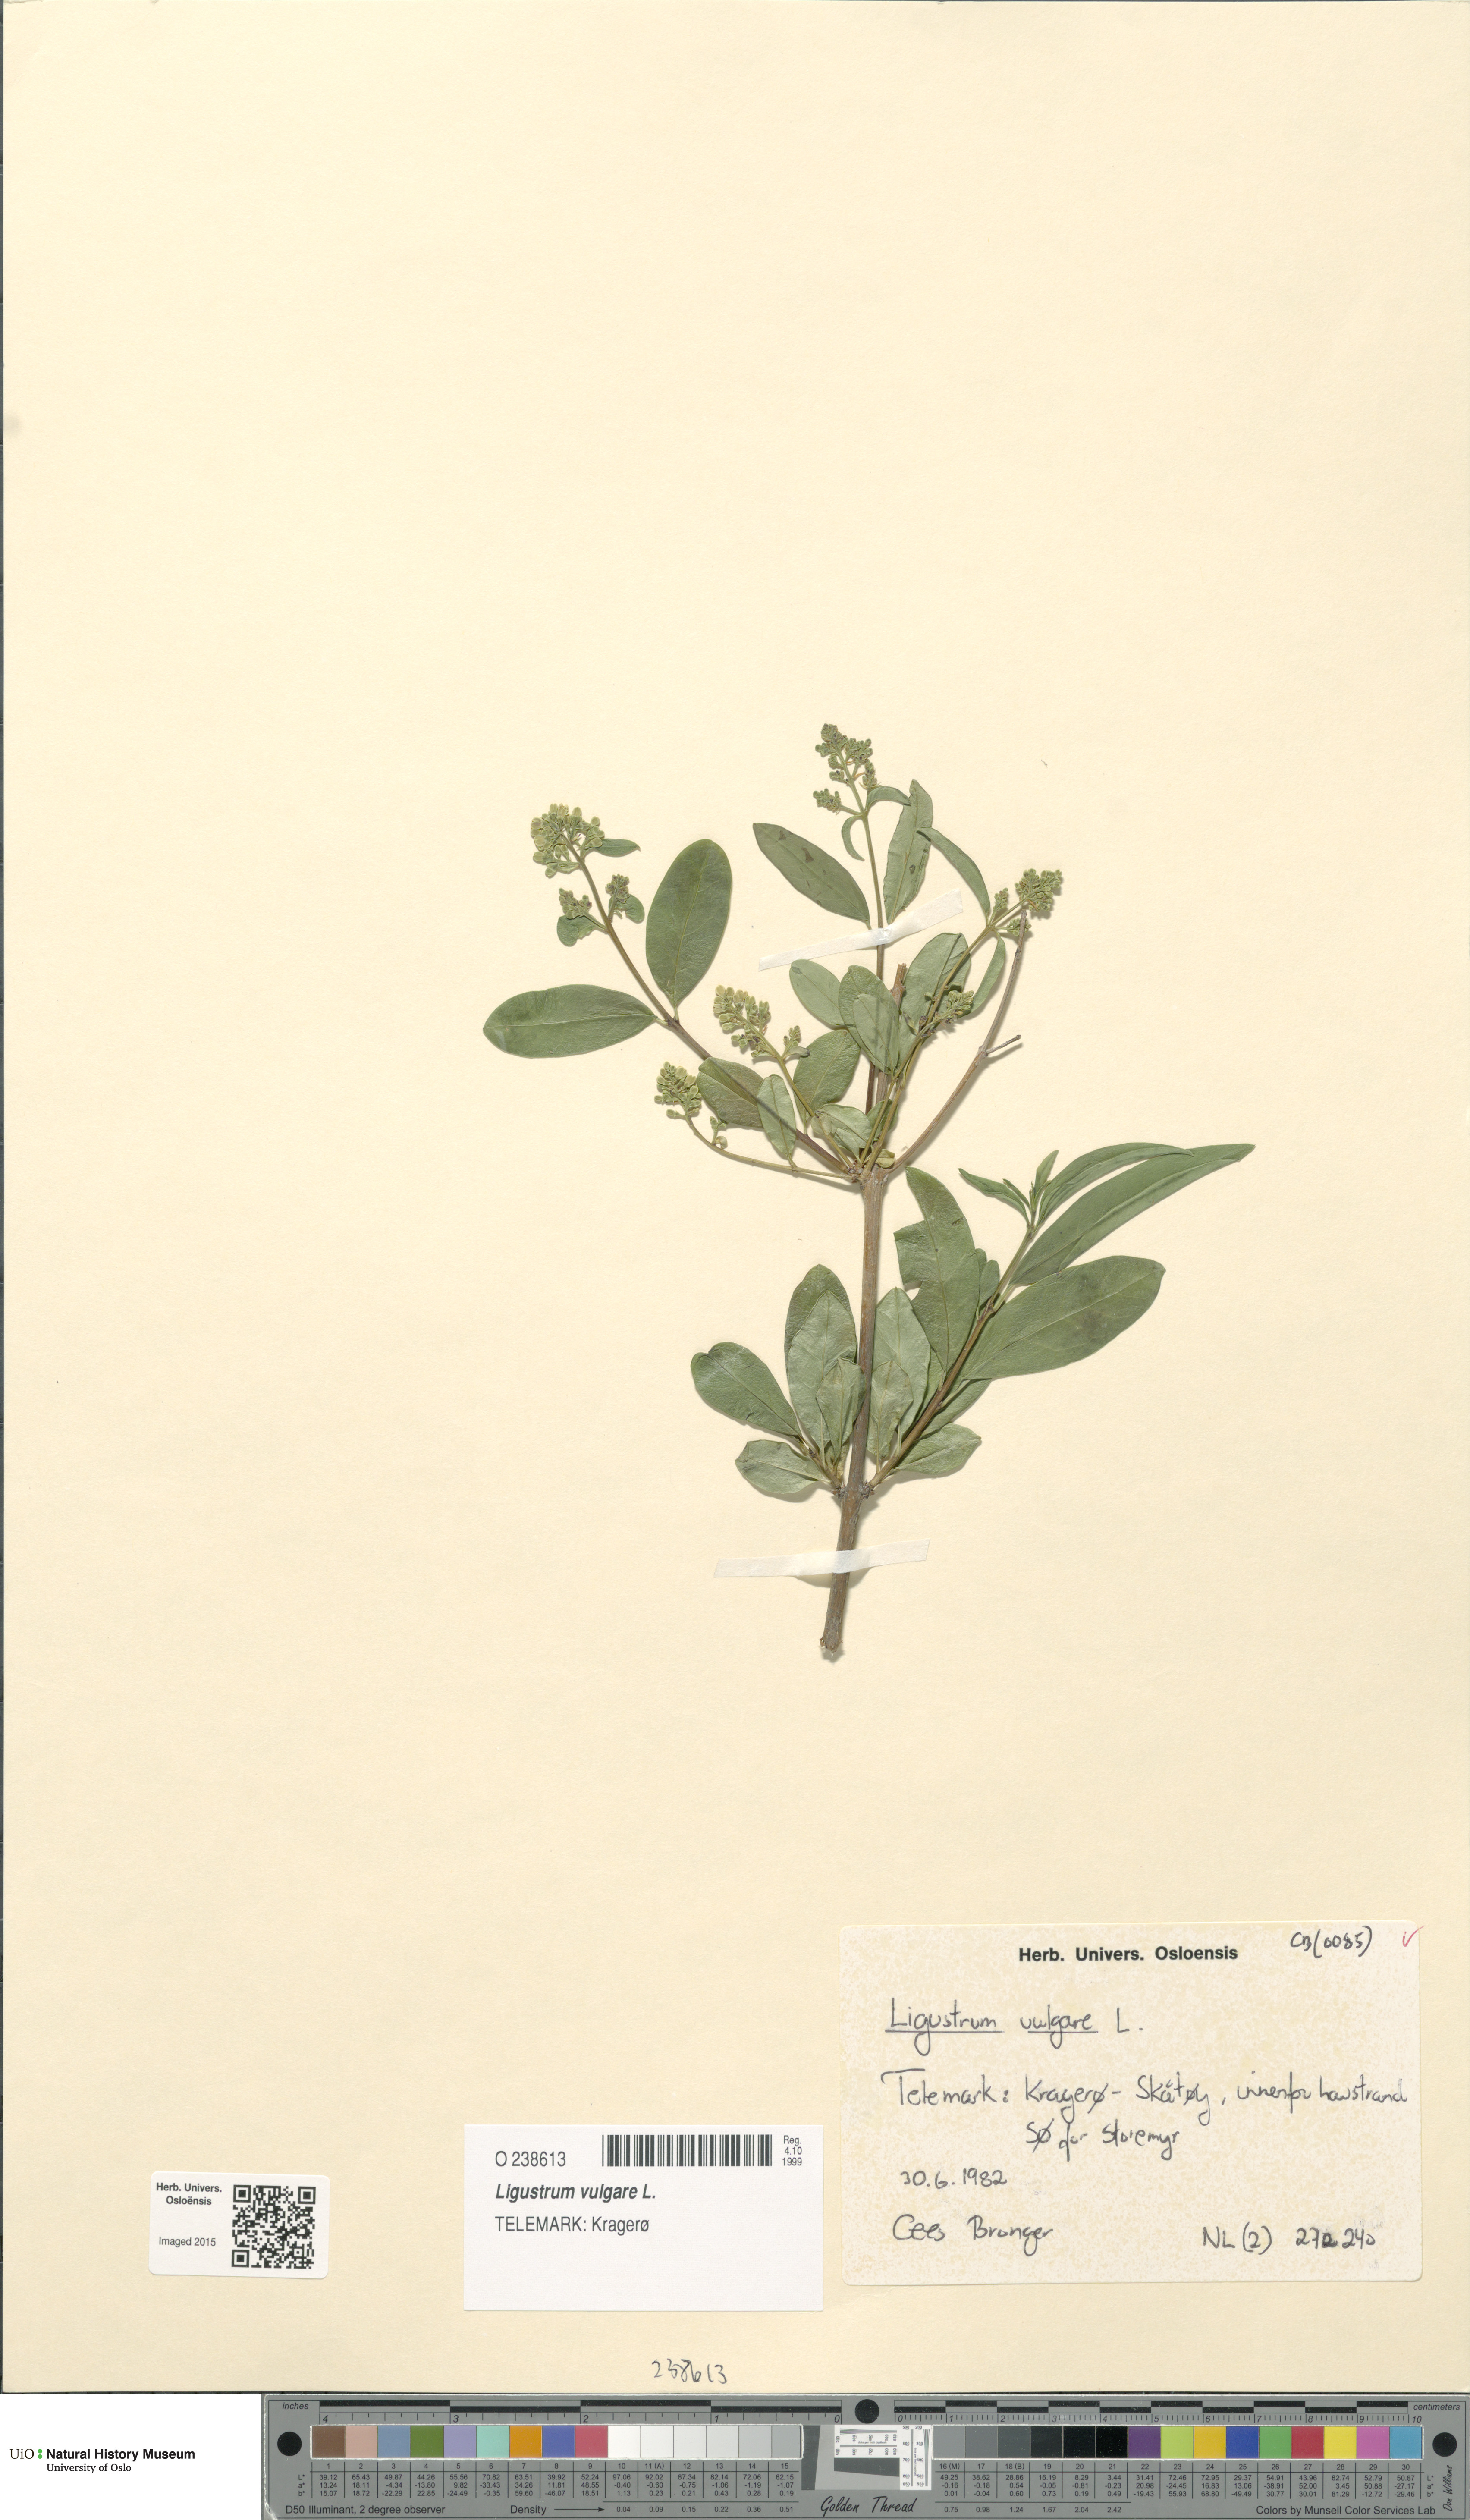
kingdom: Plantae
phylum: Tracheophyta
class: Magnoliopsida
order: Lamiales
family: Oleaceae
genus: Ligustrum
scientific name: Ligustrum vulgare
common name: Wild privet
